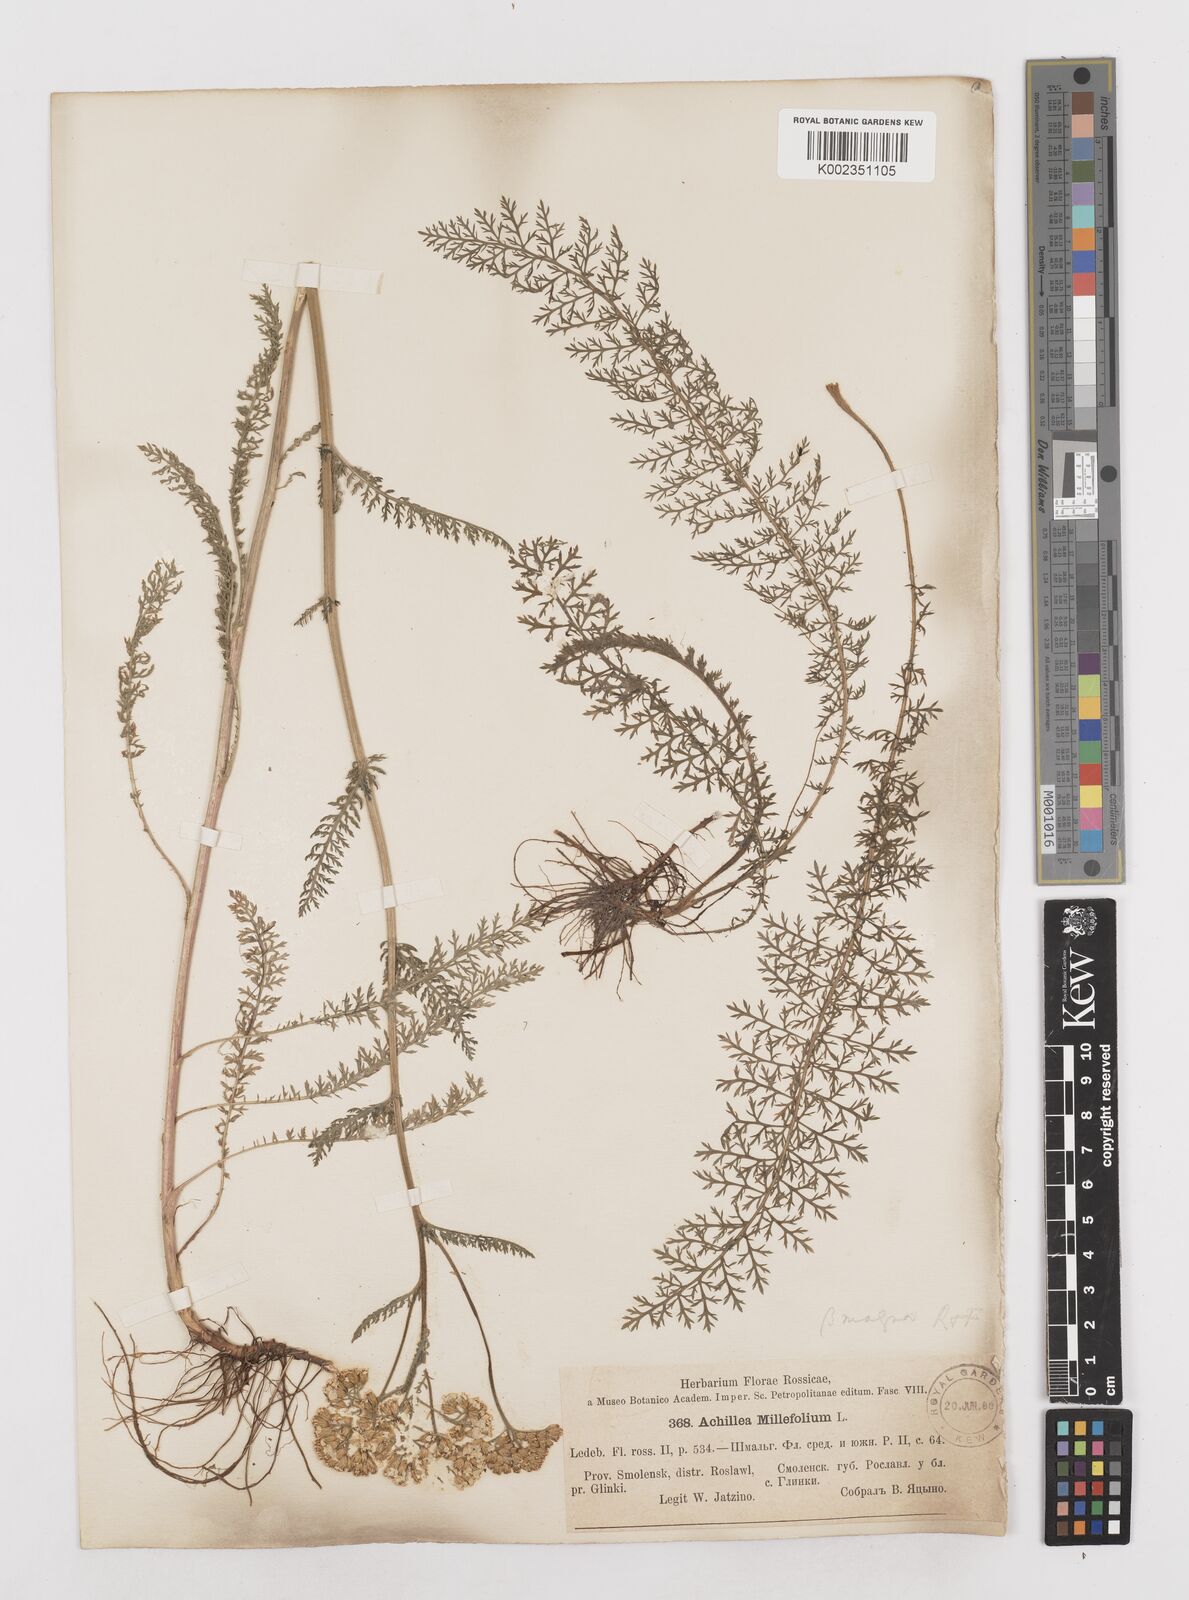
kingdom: Plantae
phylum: Tracheophyta
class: Magnoliopsida
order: Asterales
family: Asteraceae
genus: Achillea
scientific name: Achillea millefolium
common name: Yarrow
